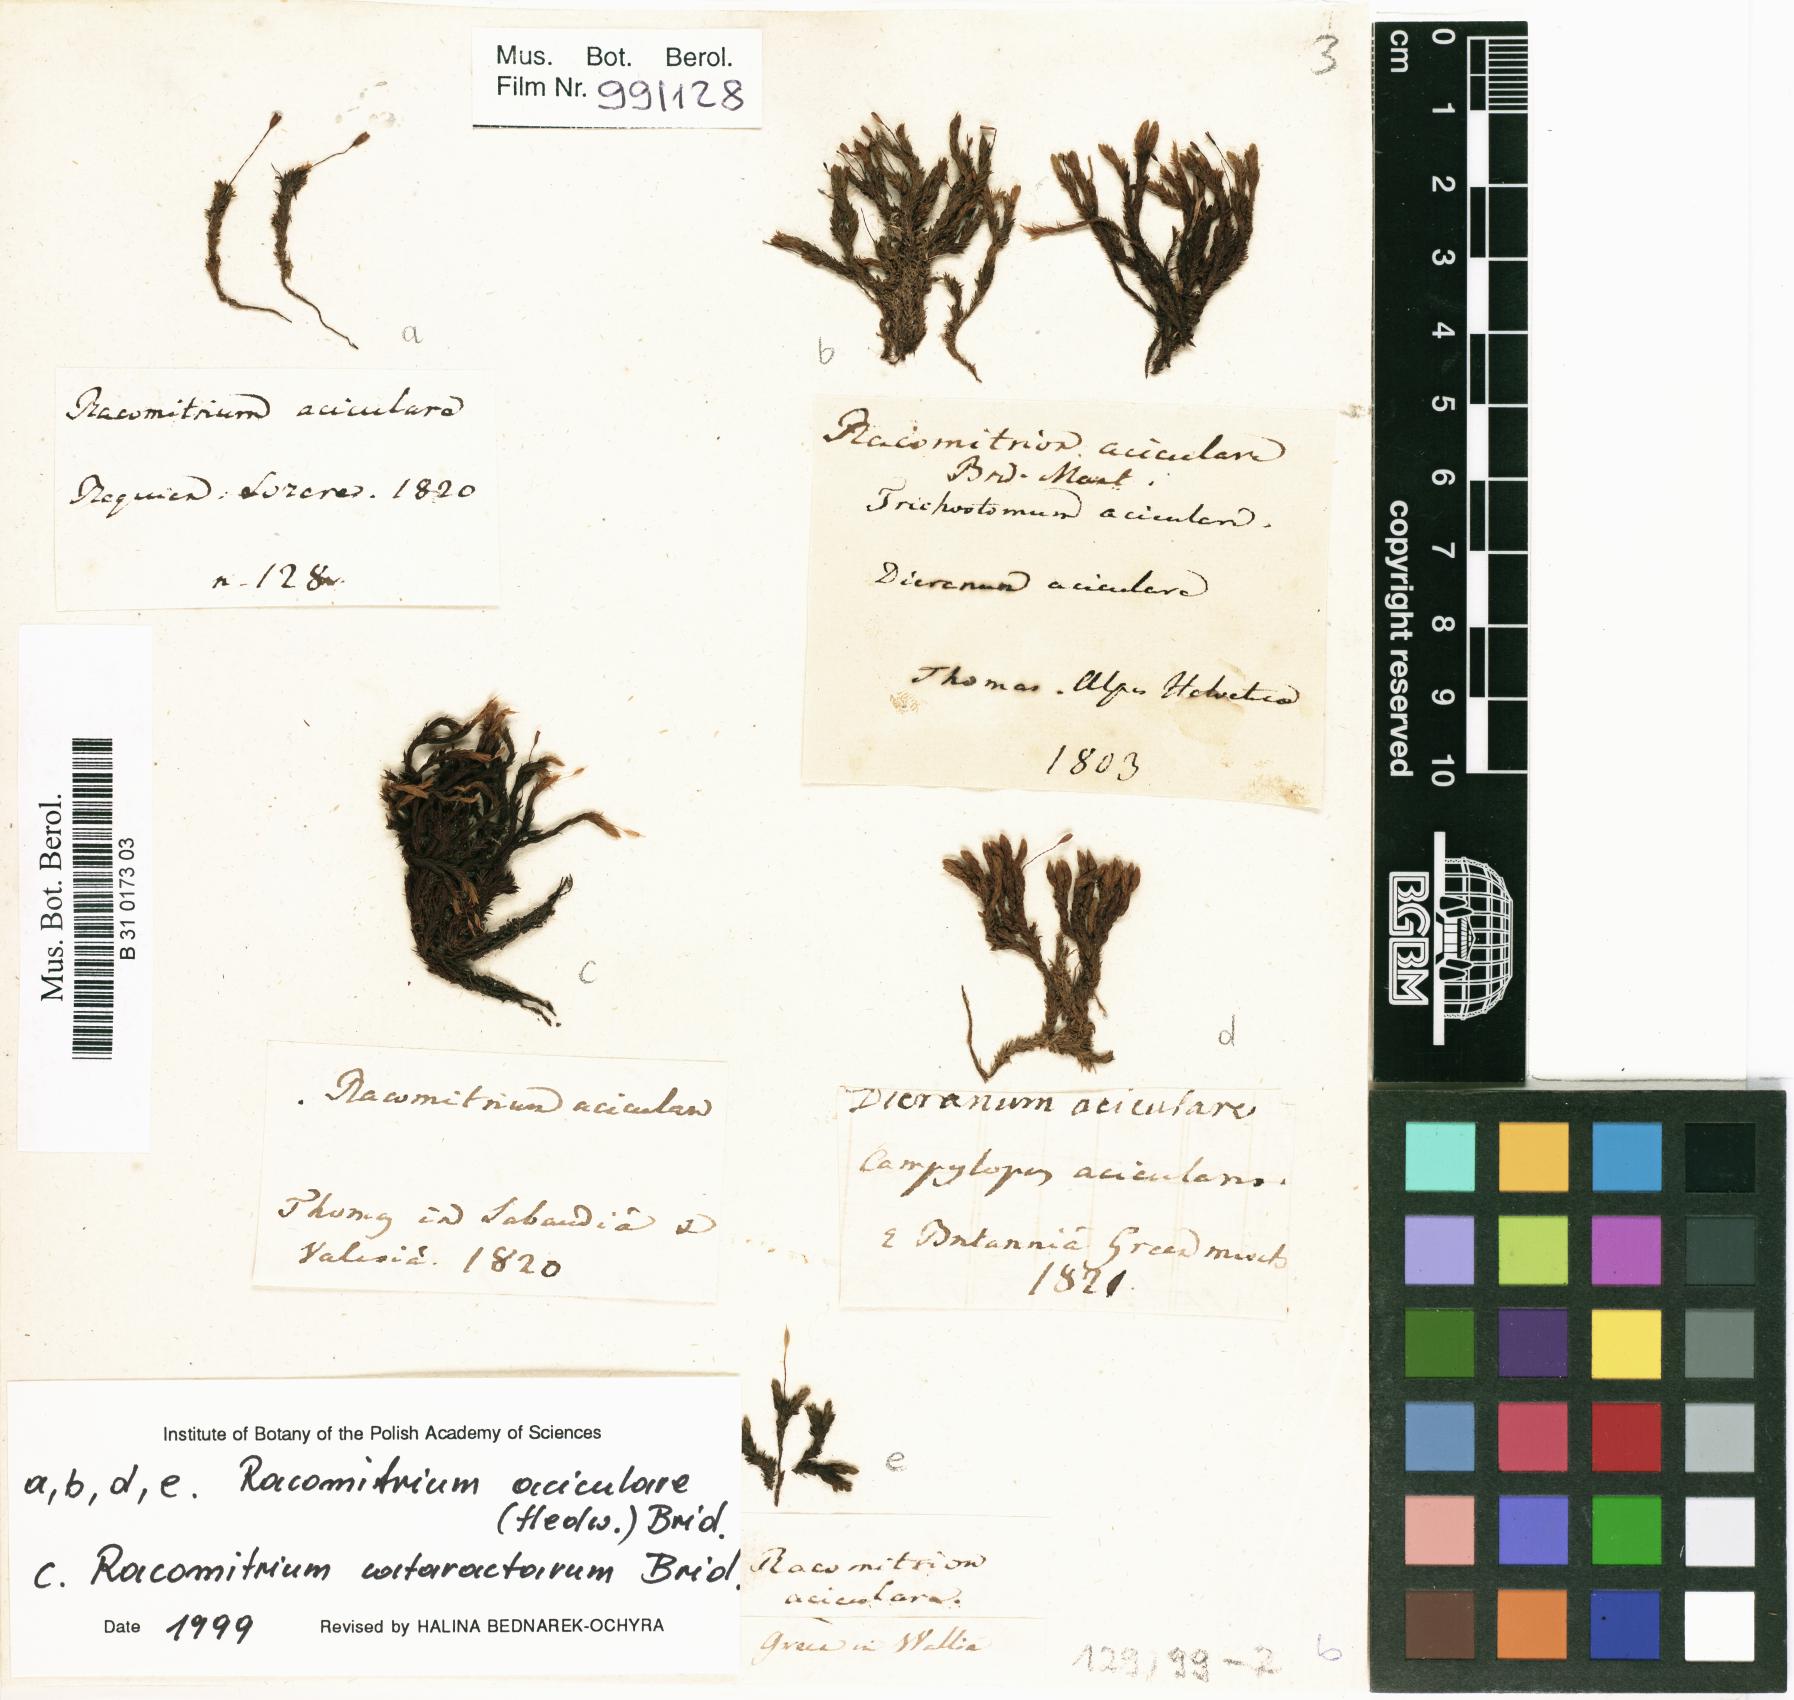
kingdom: Plantae
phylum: Bryophyta
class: Bryopsida
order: Grimmiales
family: Grimmiaceae
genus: Codriophorus
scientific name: Codriophorus acicularis
